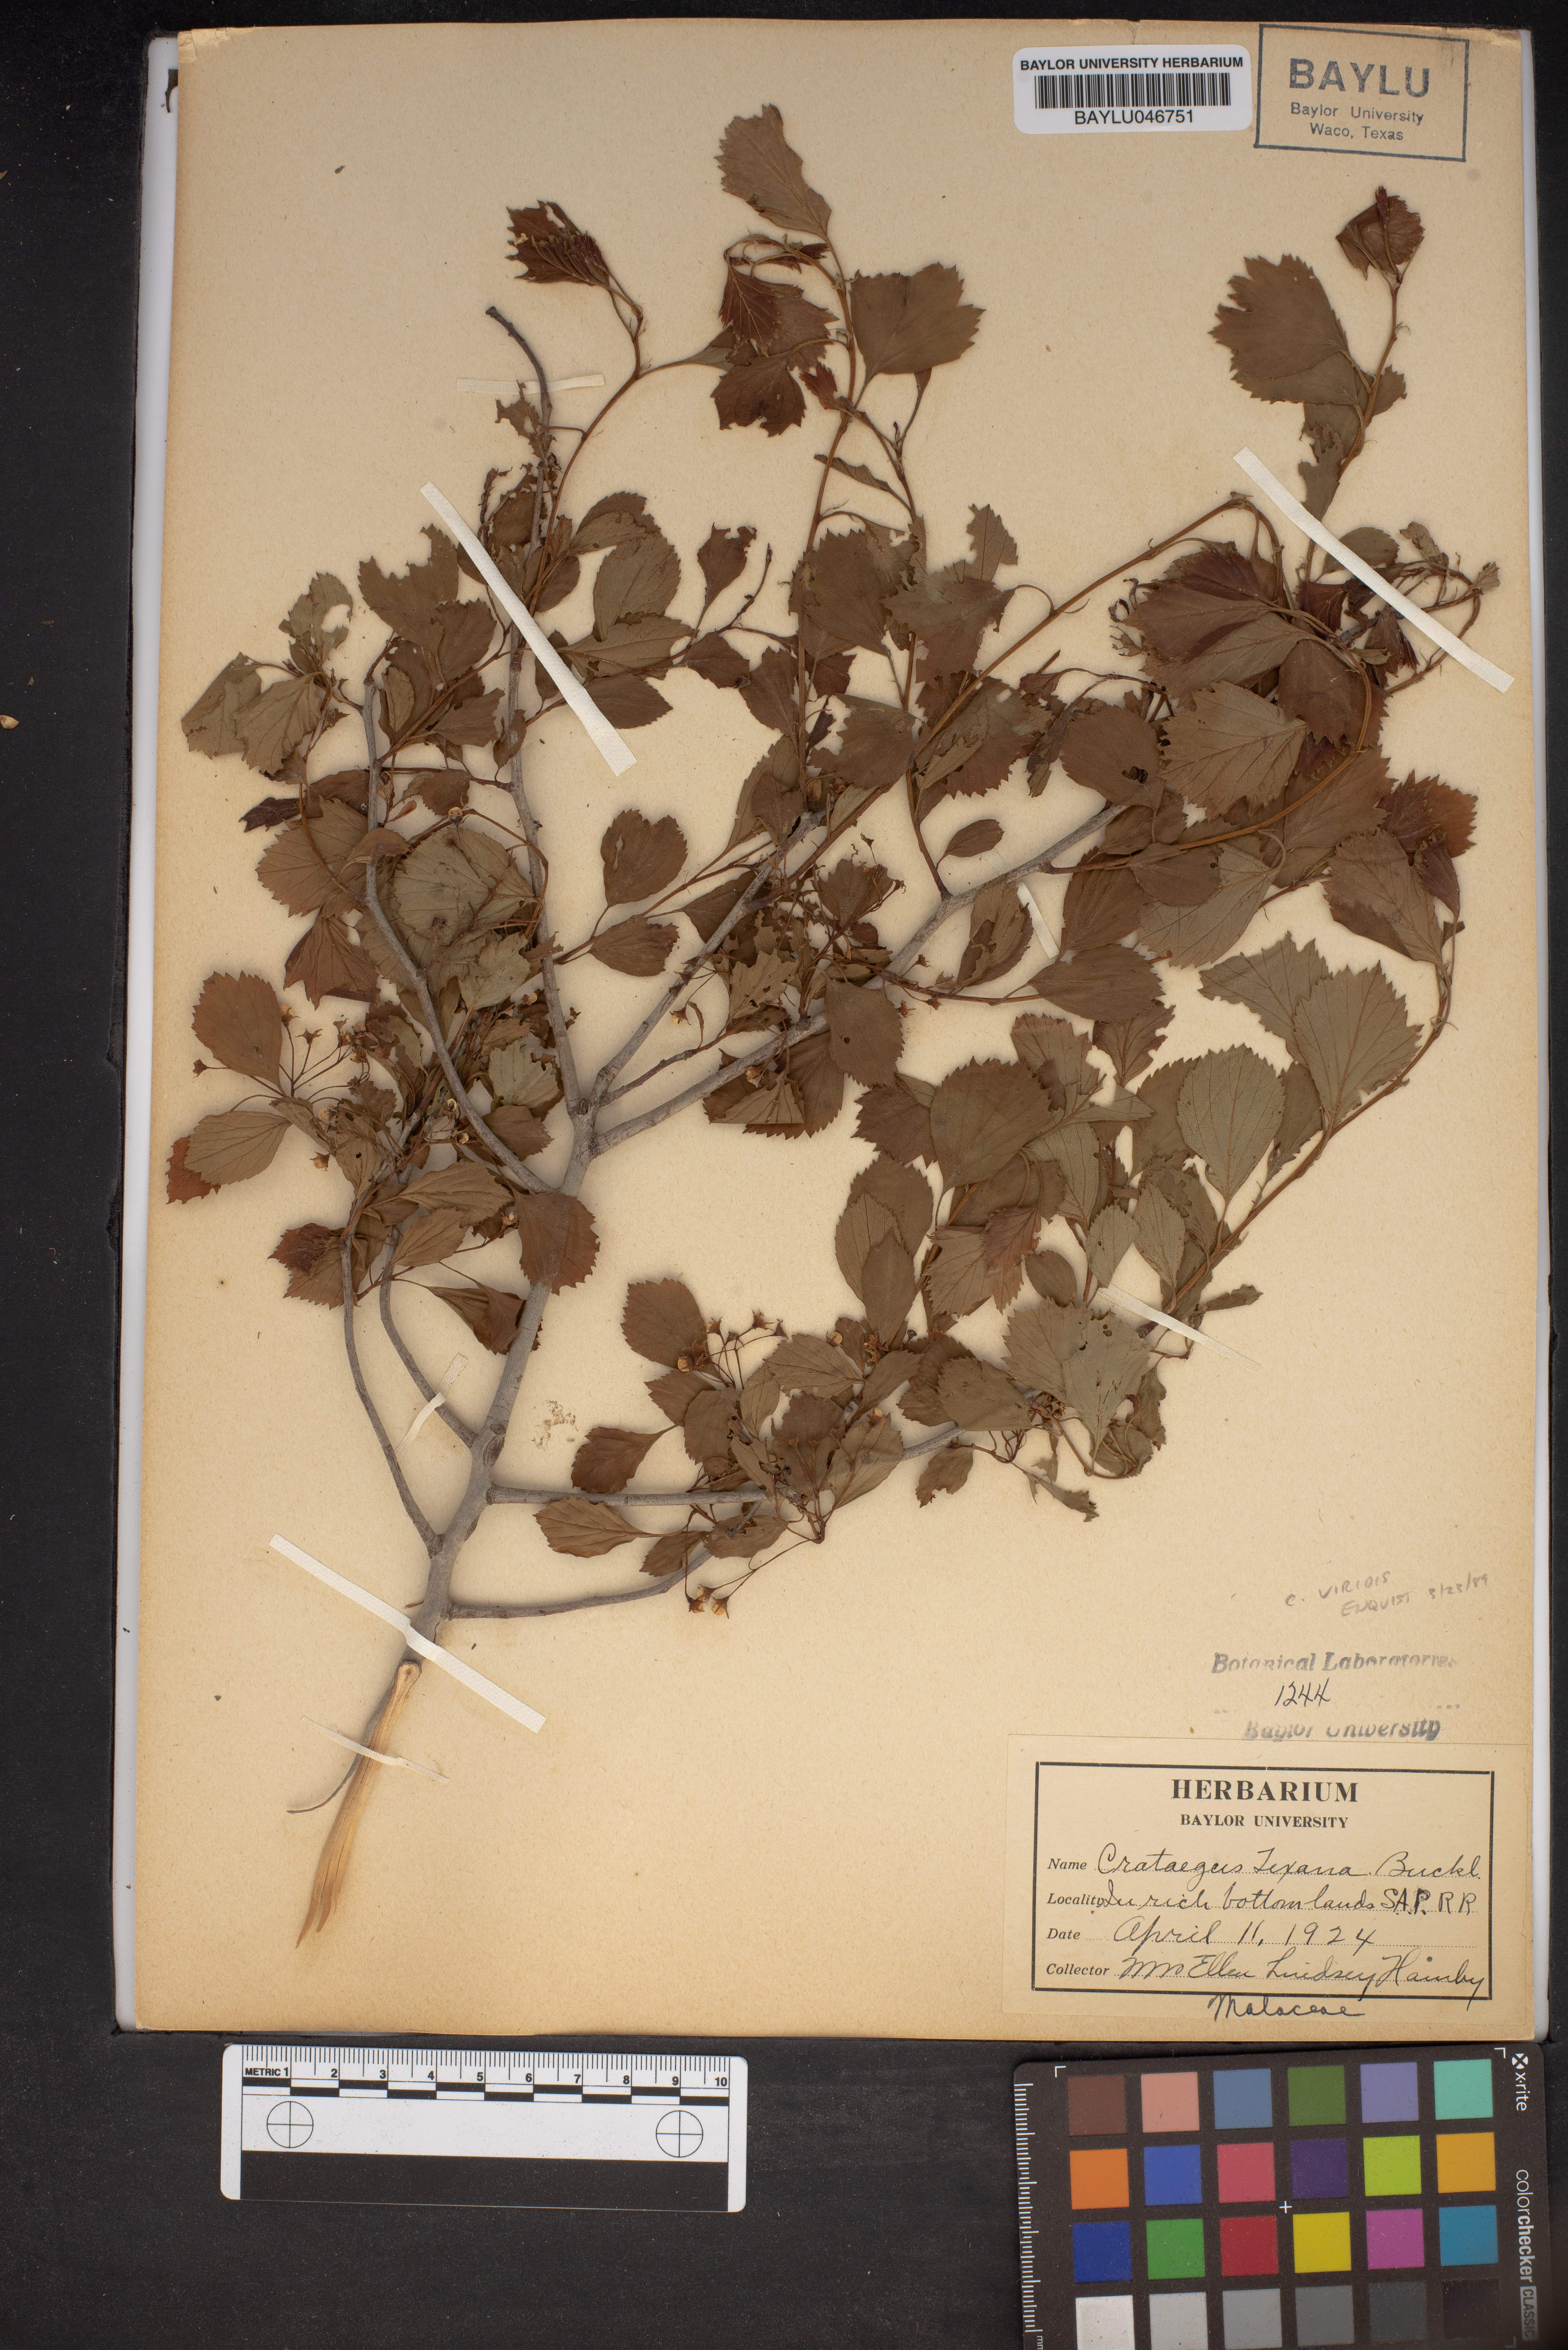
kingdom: Plantae
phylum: Tracheophyta
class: Magnoliopsida
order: Rosales
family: Rosaceae
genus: Crataegus
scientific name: Crataegus viridis
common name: Southernthorn
